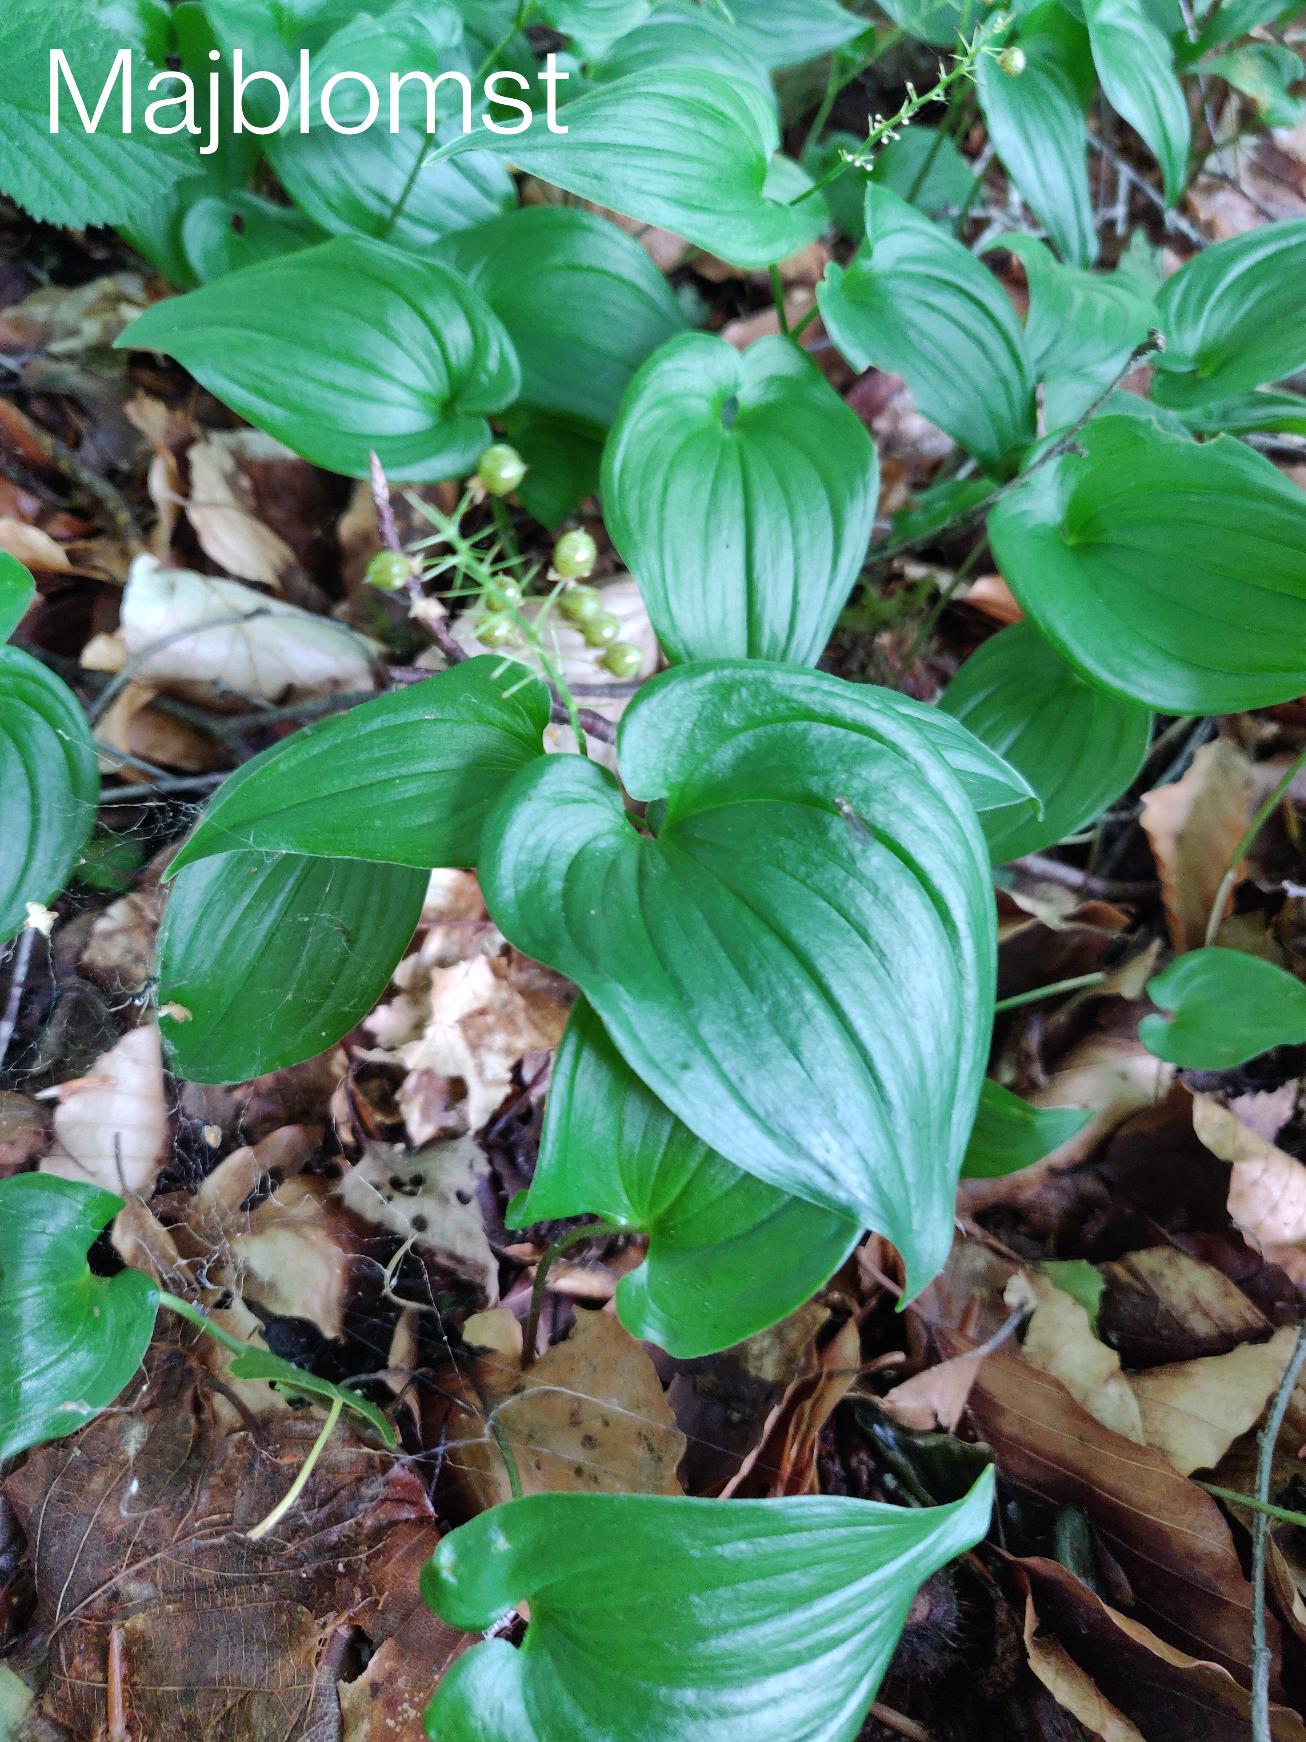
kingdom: Plantae
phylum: Tracheophyta
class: Liliopsida
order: Asparagales
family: Asparagaceae
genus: Maianthemum
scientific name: Maianthemum bifolium
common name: Majblomst
